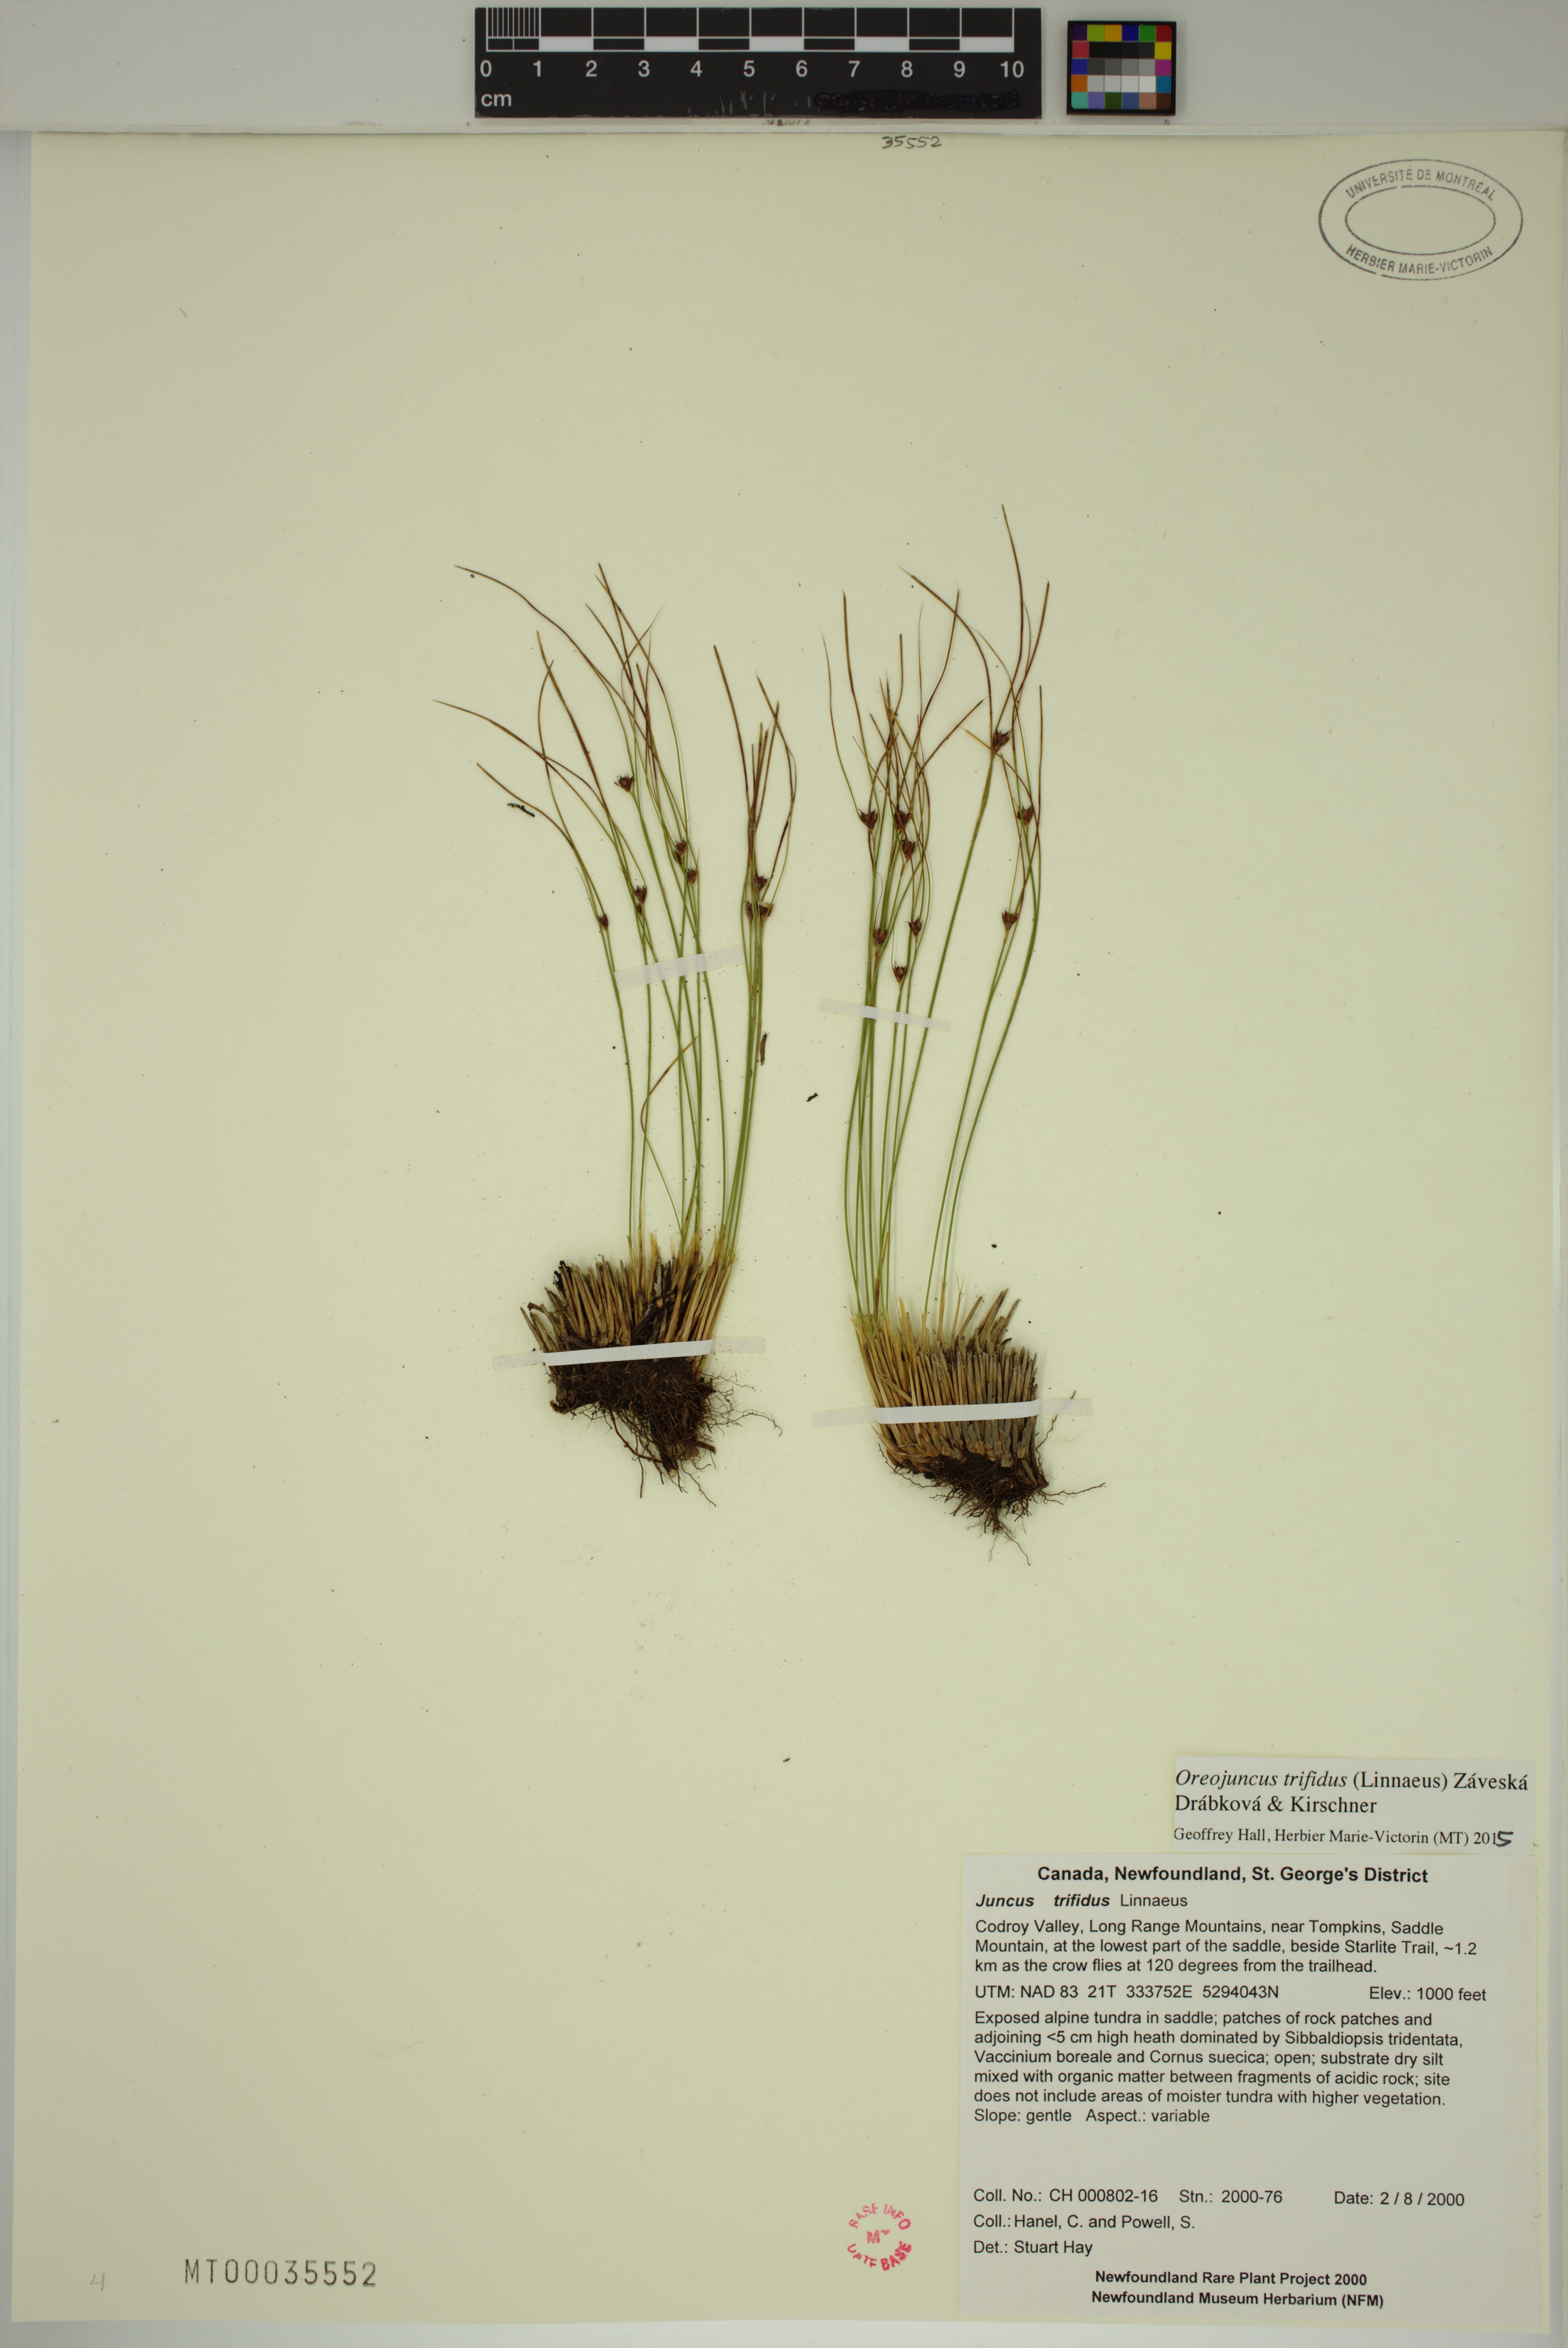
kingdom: Plantae
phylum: Tracheophyta
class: Liliopsida
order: Poales
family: Juncaceae
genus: Oreojuncus
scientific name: Oreojuncus trifidus
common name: Highland rush
